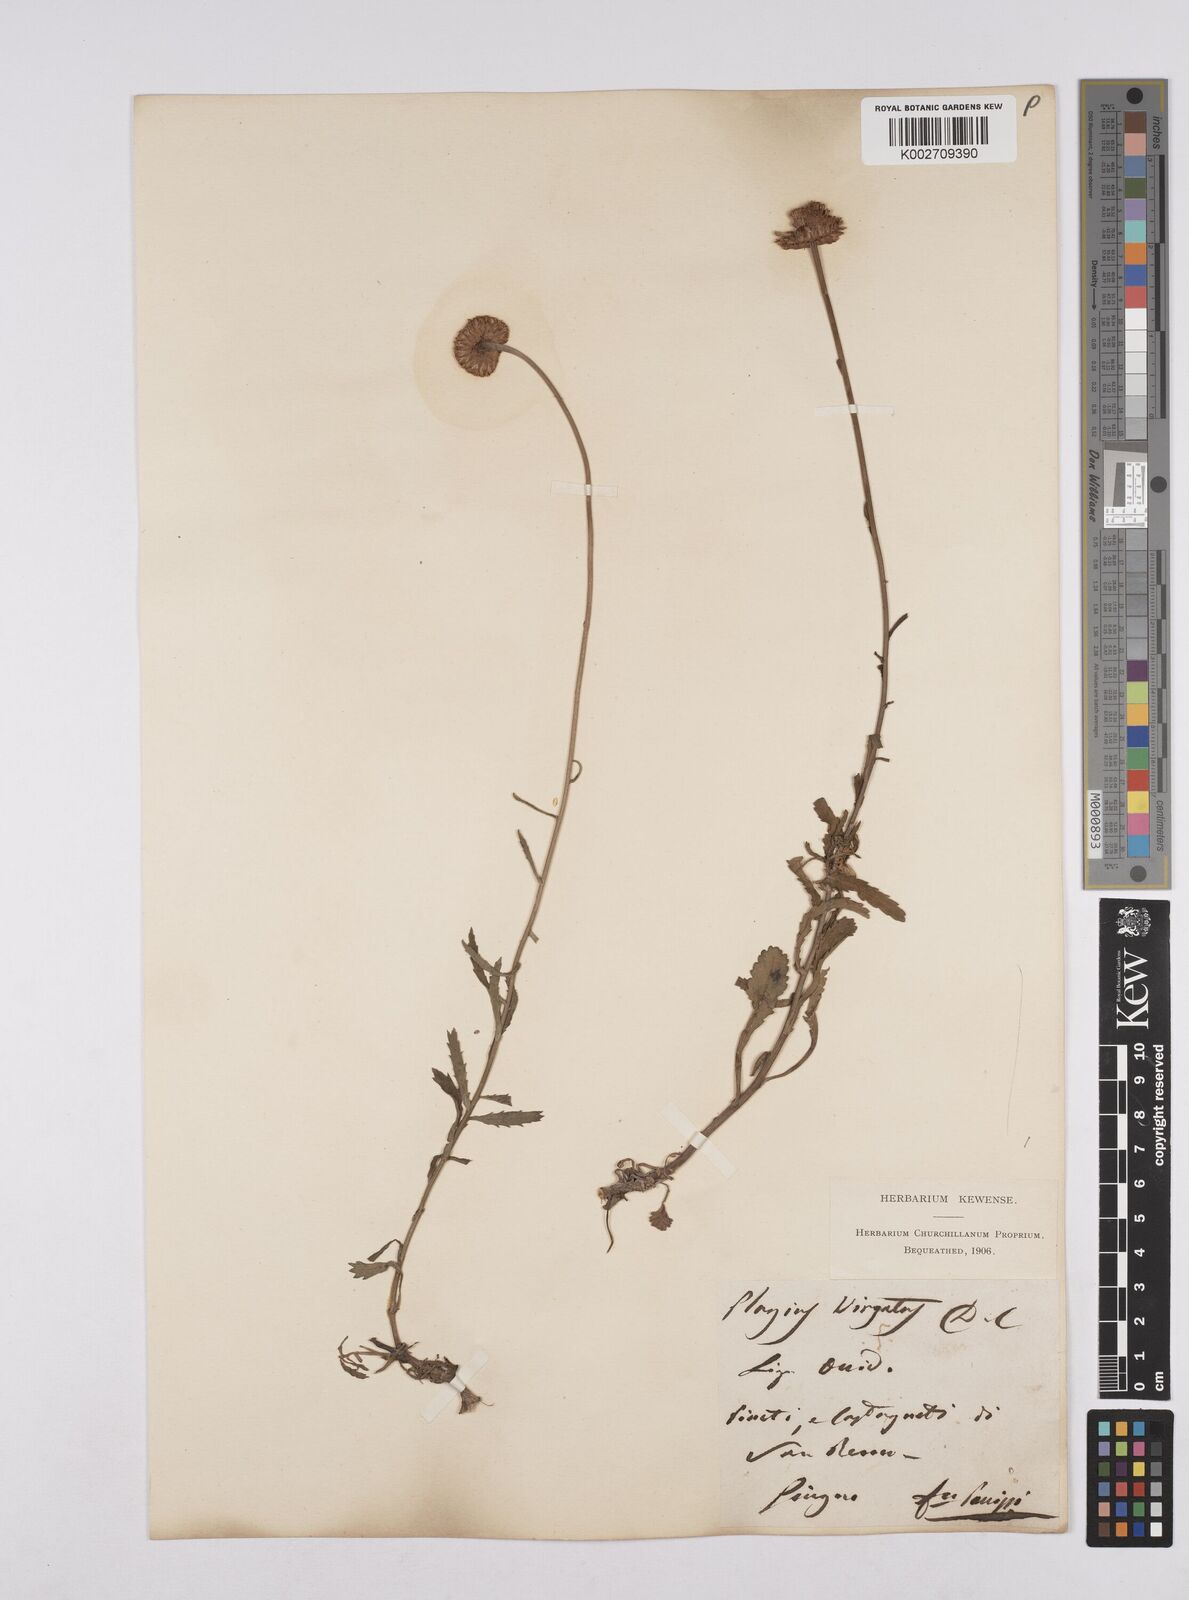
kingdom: Plantae
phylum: Tracheophyta
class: Magnoliopsida
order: Asterales
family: Asteraceae
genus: Leucanthemum
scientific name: Leucanthemum vulgare
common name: Oxeye daisy
